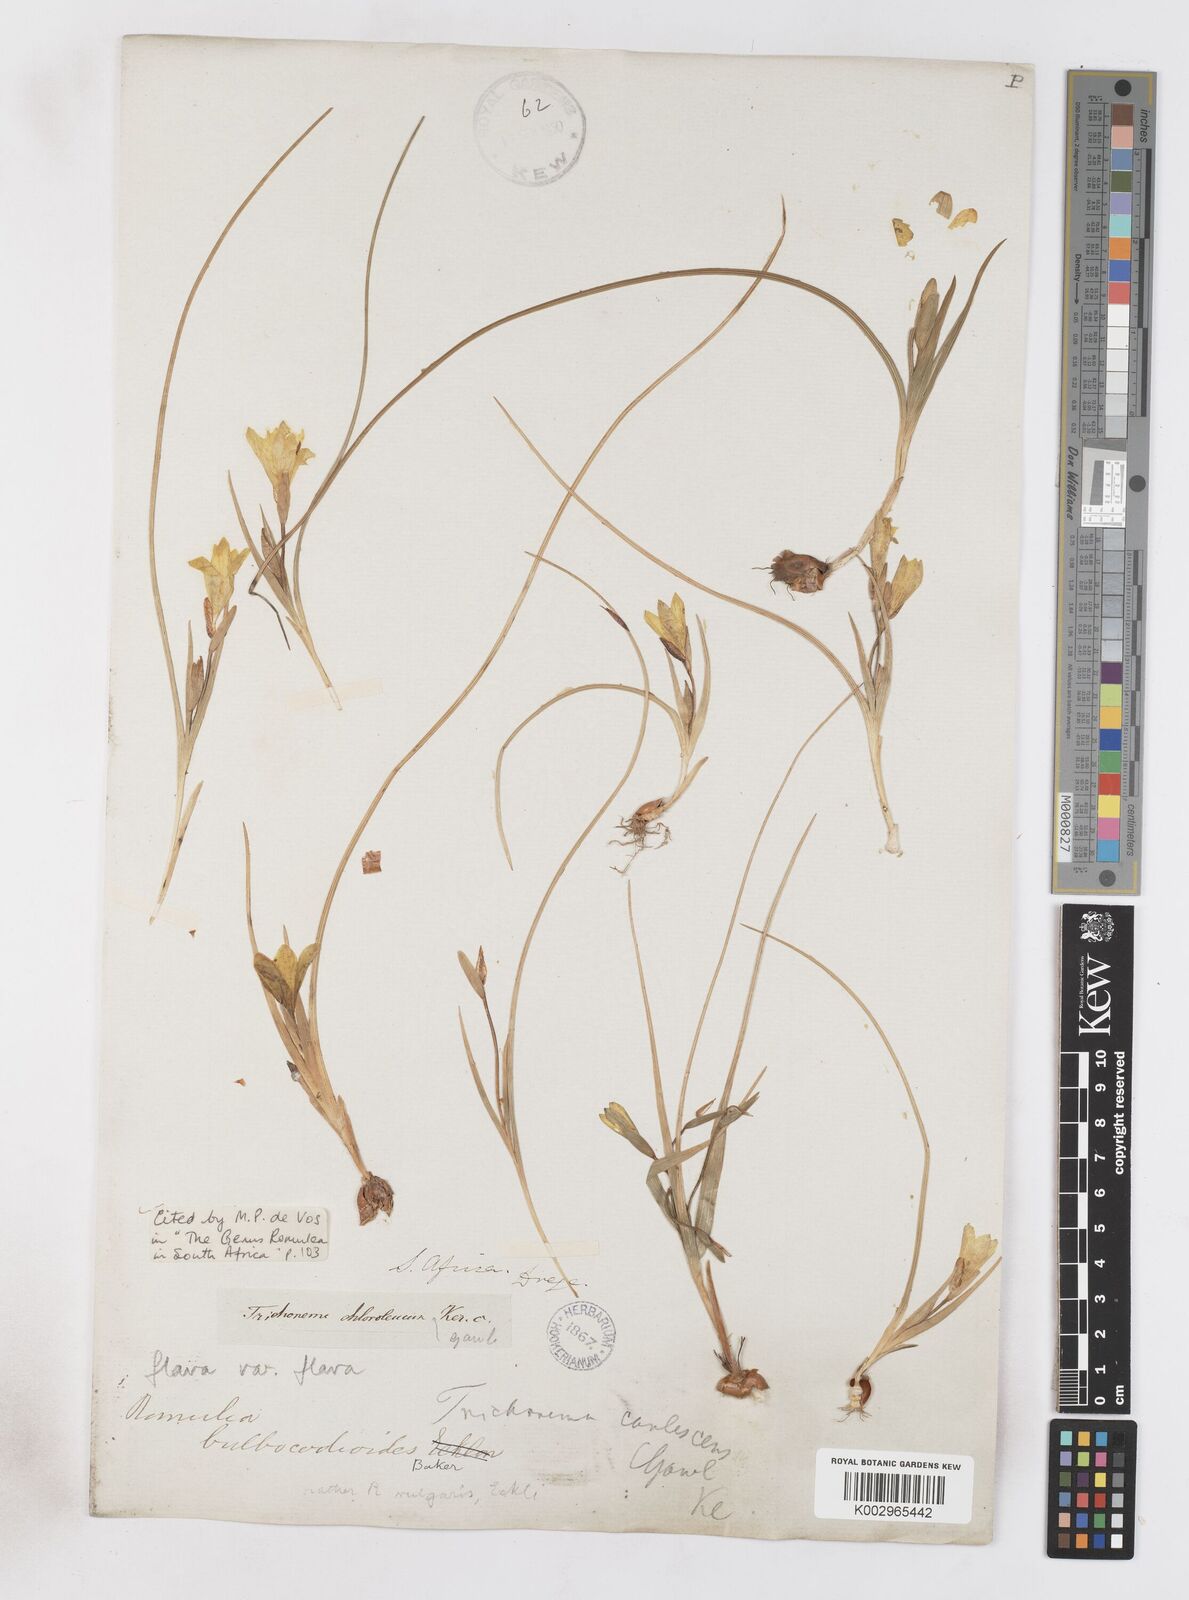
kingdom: Plantae
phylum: Tracheophyta
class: Liliopsida
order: Asparagales
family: Iridaceae
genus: Romulea
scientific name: Romulea flava
